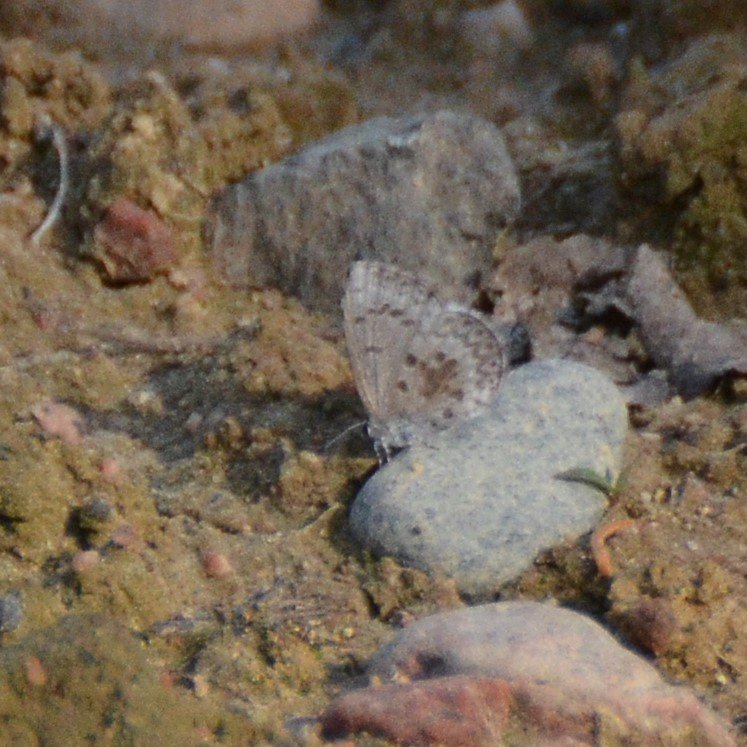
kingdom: Animalia
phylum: Arthropoda
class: Insecta
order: Lepidoptera
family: Lycaenidae
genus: Celastrina
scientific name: Celastrina lucia
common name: Northern Spring Azure
